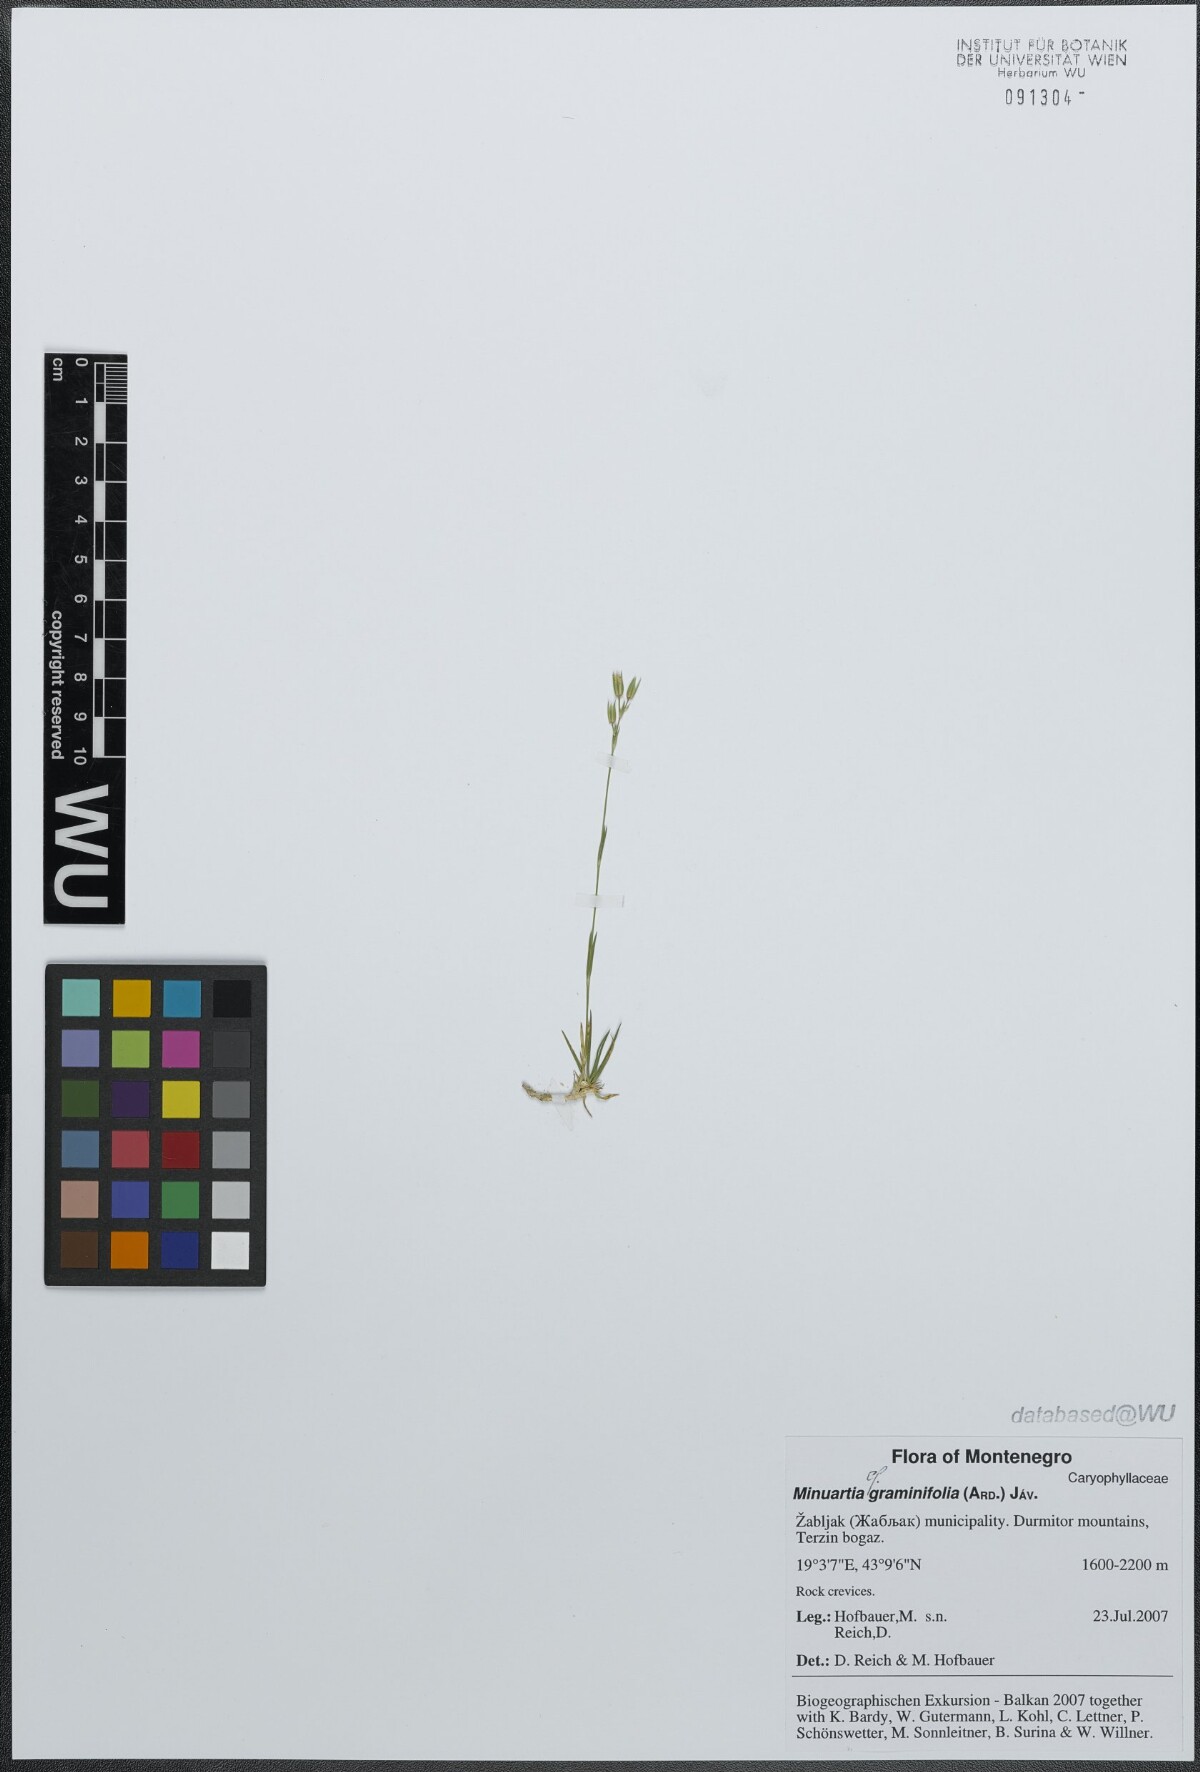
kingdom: Plantae
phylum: Tracheophyta
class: Magnoliopsida
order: Caryophyllales
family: Caryophyllaceae
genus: Mcneillia
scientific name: Mcneillia graminifolia
